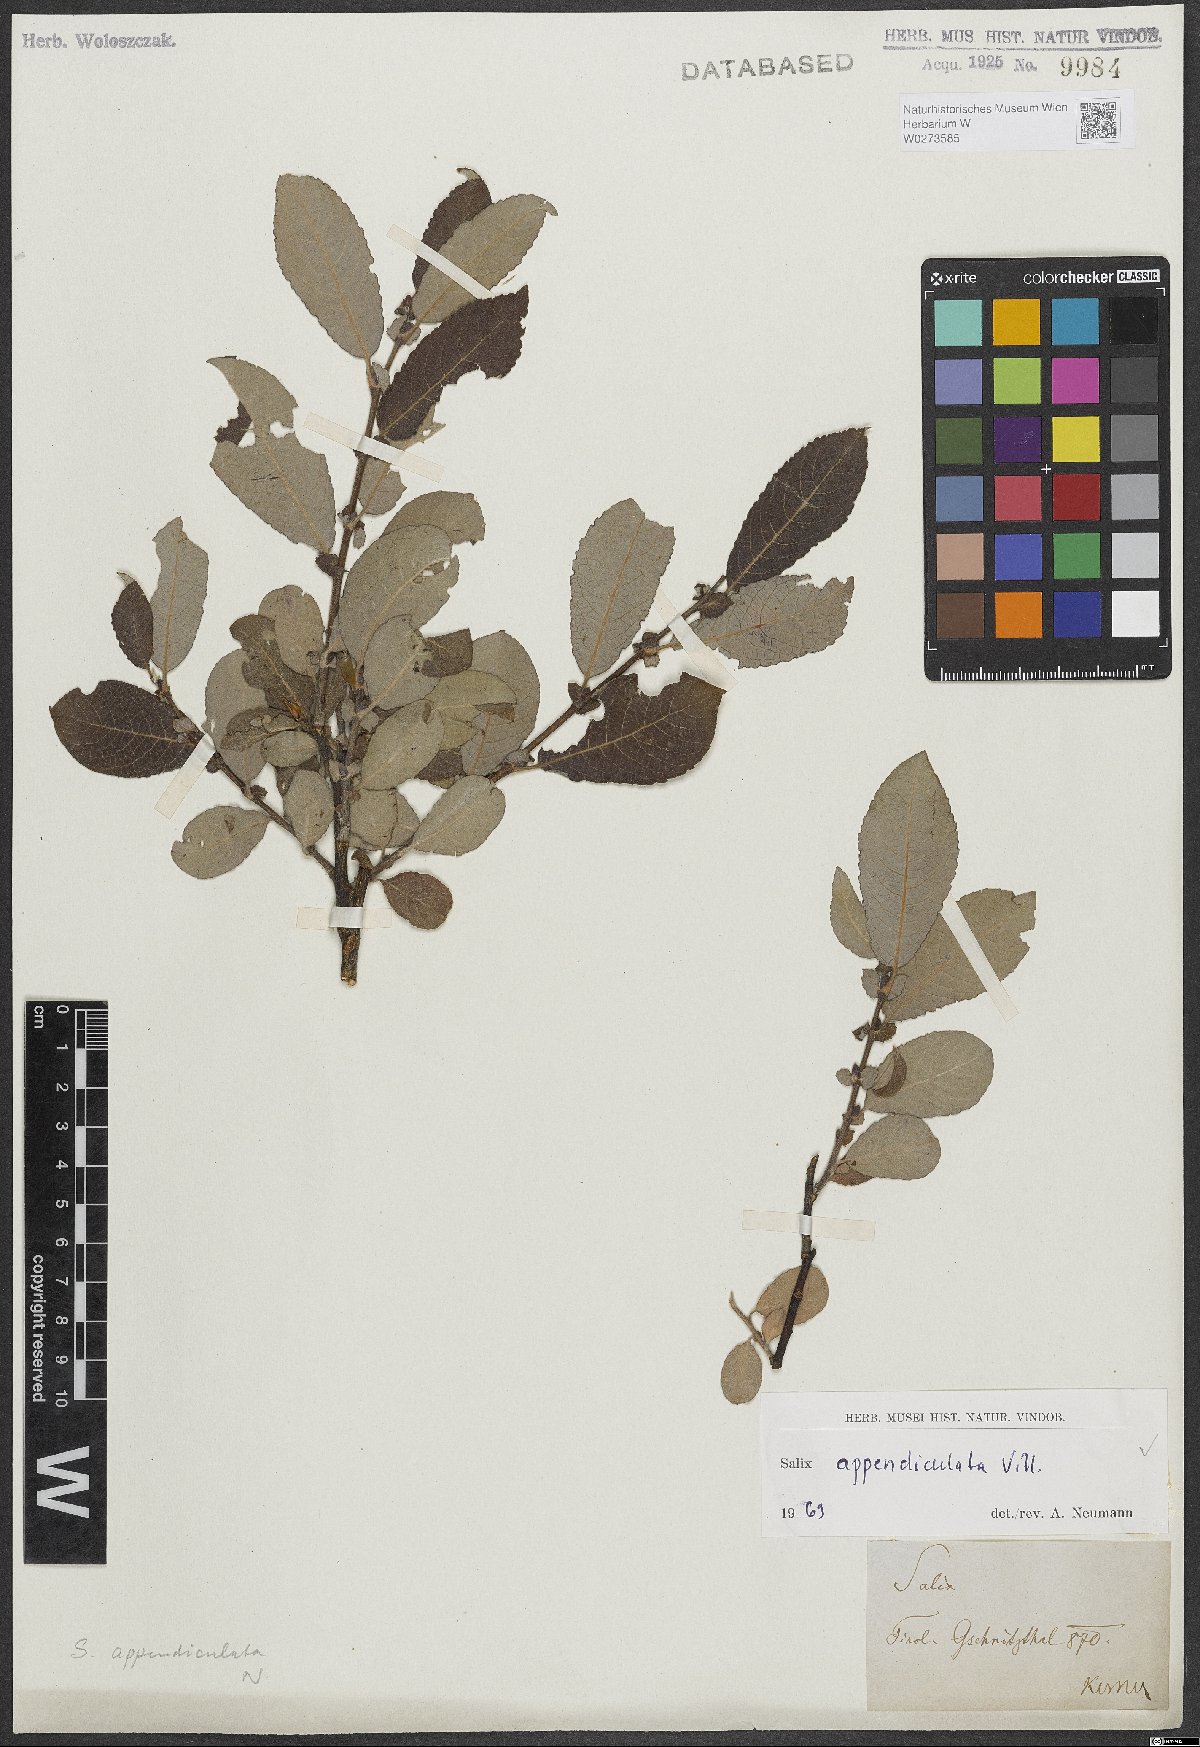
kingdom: Plantae
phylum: Tracheophyta
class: Magnoliopsida
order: Malpighiales
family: Salicaceae
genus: Salix
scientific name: Salix appendiculata
